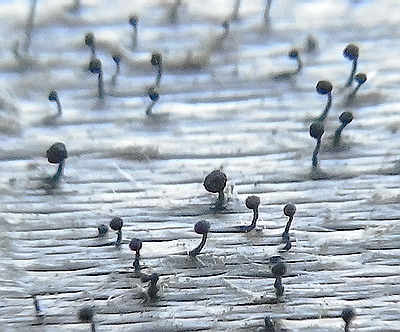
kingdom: Fungi
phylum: Ascomycota
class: Eurotiomycetes
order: Mycocaliciales
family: Mycocaliciaceae
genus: Mycocalicium
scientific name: Mycocalicium subtile
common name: ved-nålesvamp
